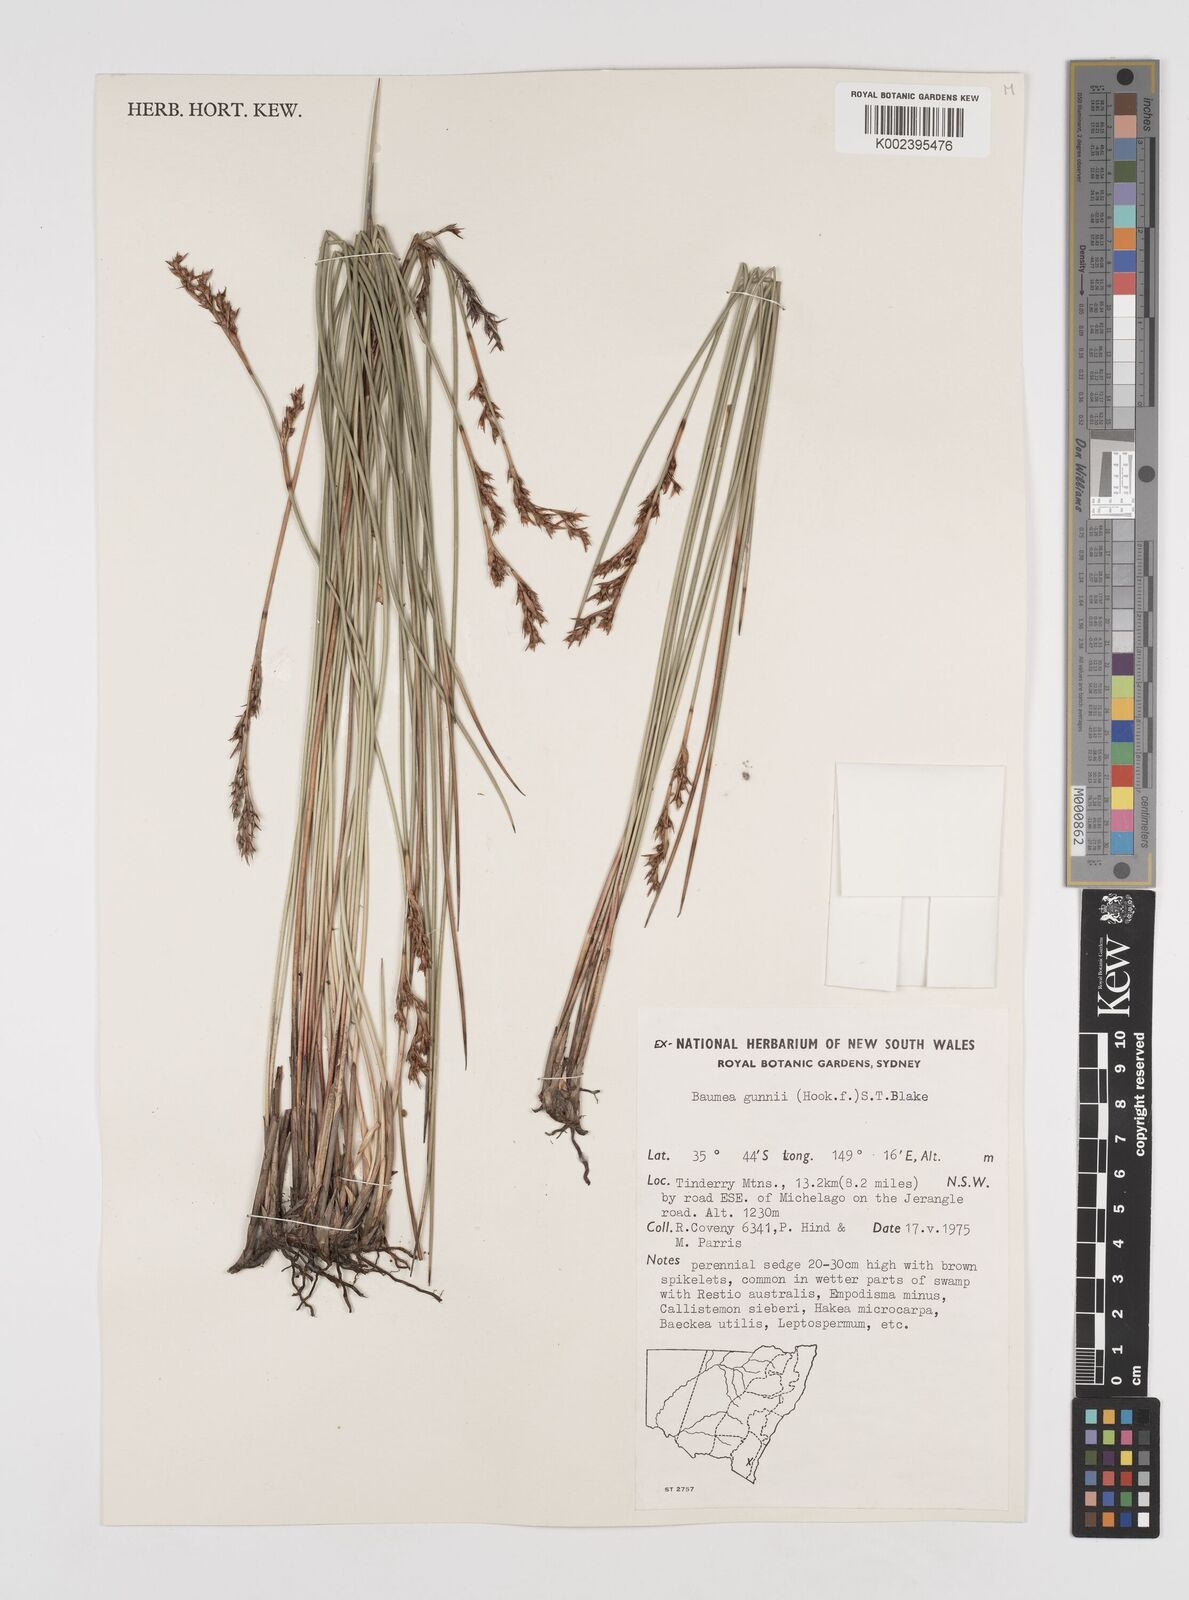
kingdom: Plantae
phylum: Tracheophyta
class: Liliopsida
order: Poales
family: Cyperaceae
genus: Machaerina
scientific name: Machaerina gunnii
